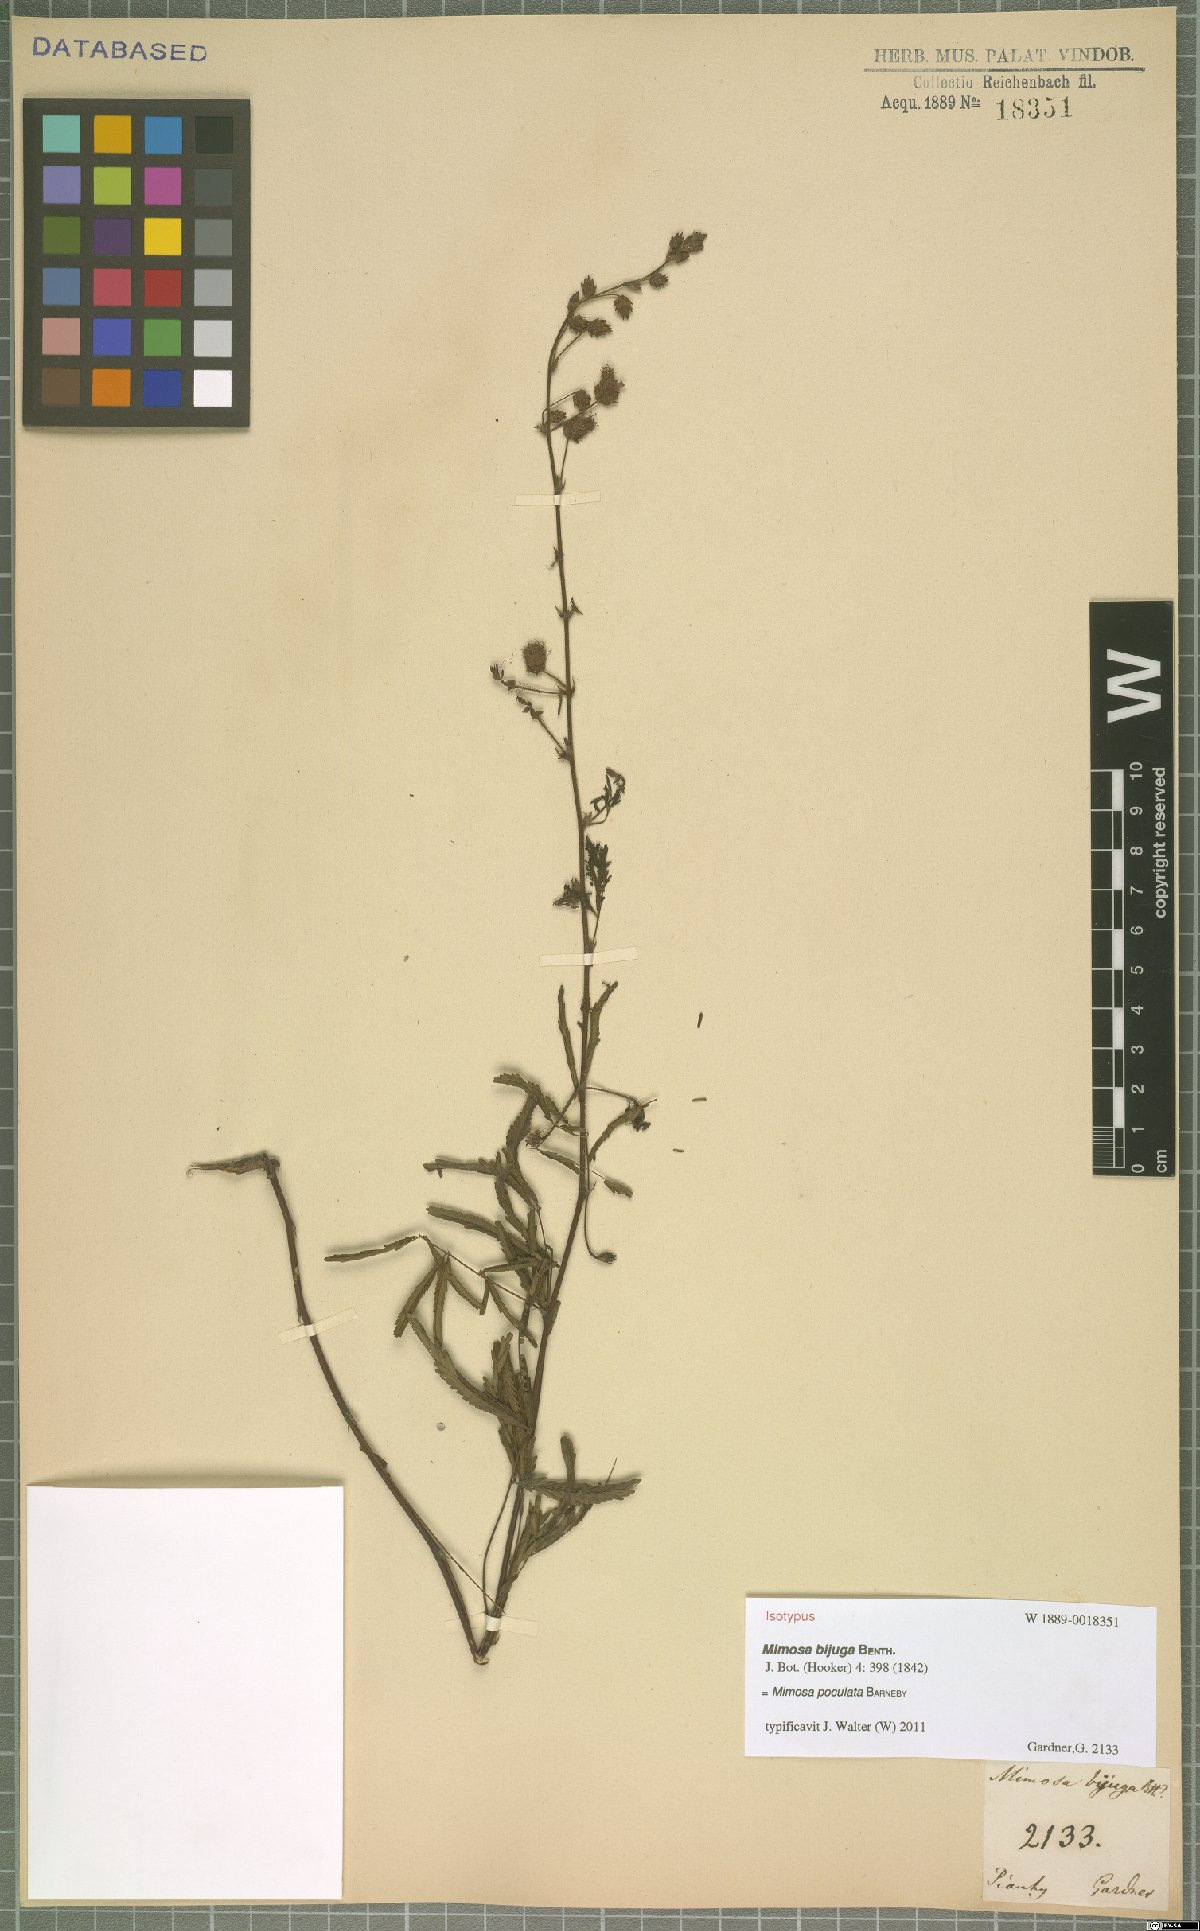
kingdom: Plantae
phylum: Tracheophyta
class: Magnoliopsida
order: Fabales
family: Fabaceae
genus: Mimosa
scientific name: Mimosa poculata
